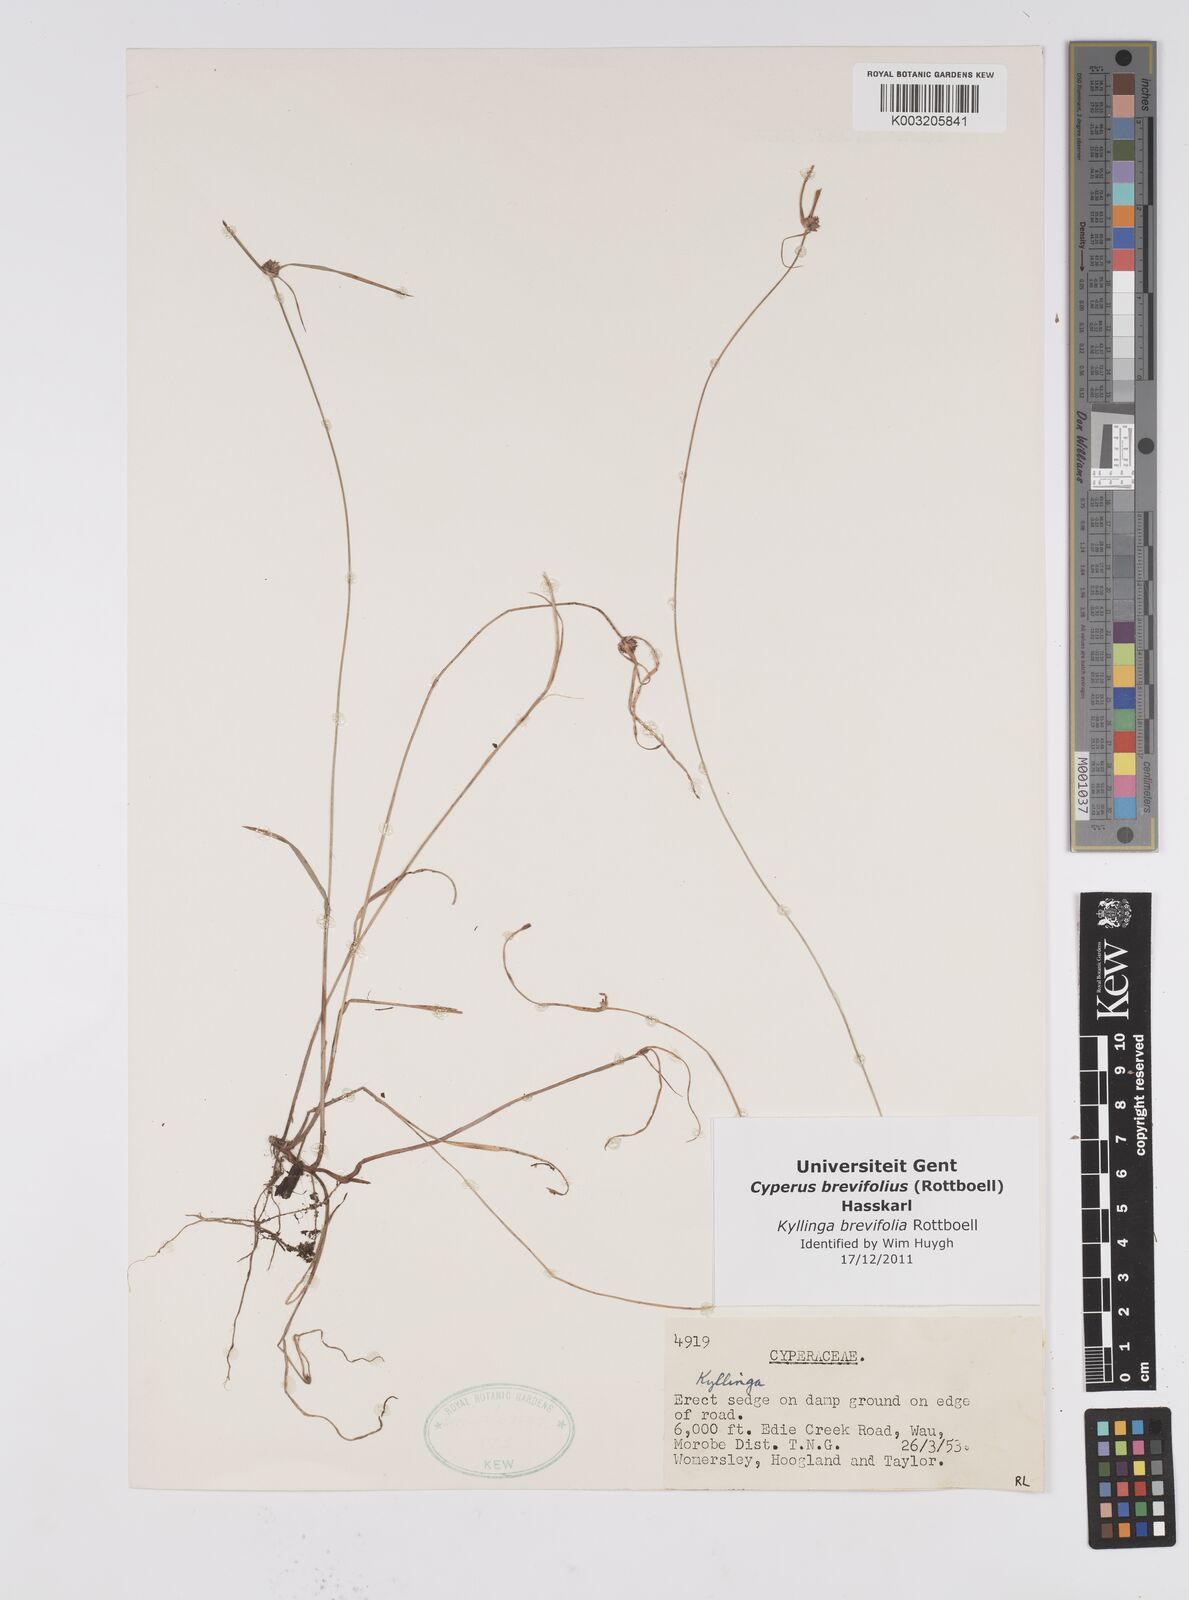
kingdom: Plantae
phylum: Tracheophyta
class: Liliopsida
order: Poales
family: Cyperaceae
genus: Cyperus
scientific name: Cyperus brevifolius
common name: Globe kyllinga
